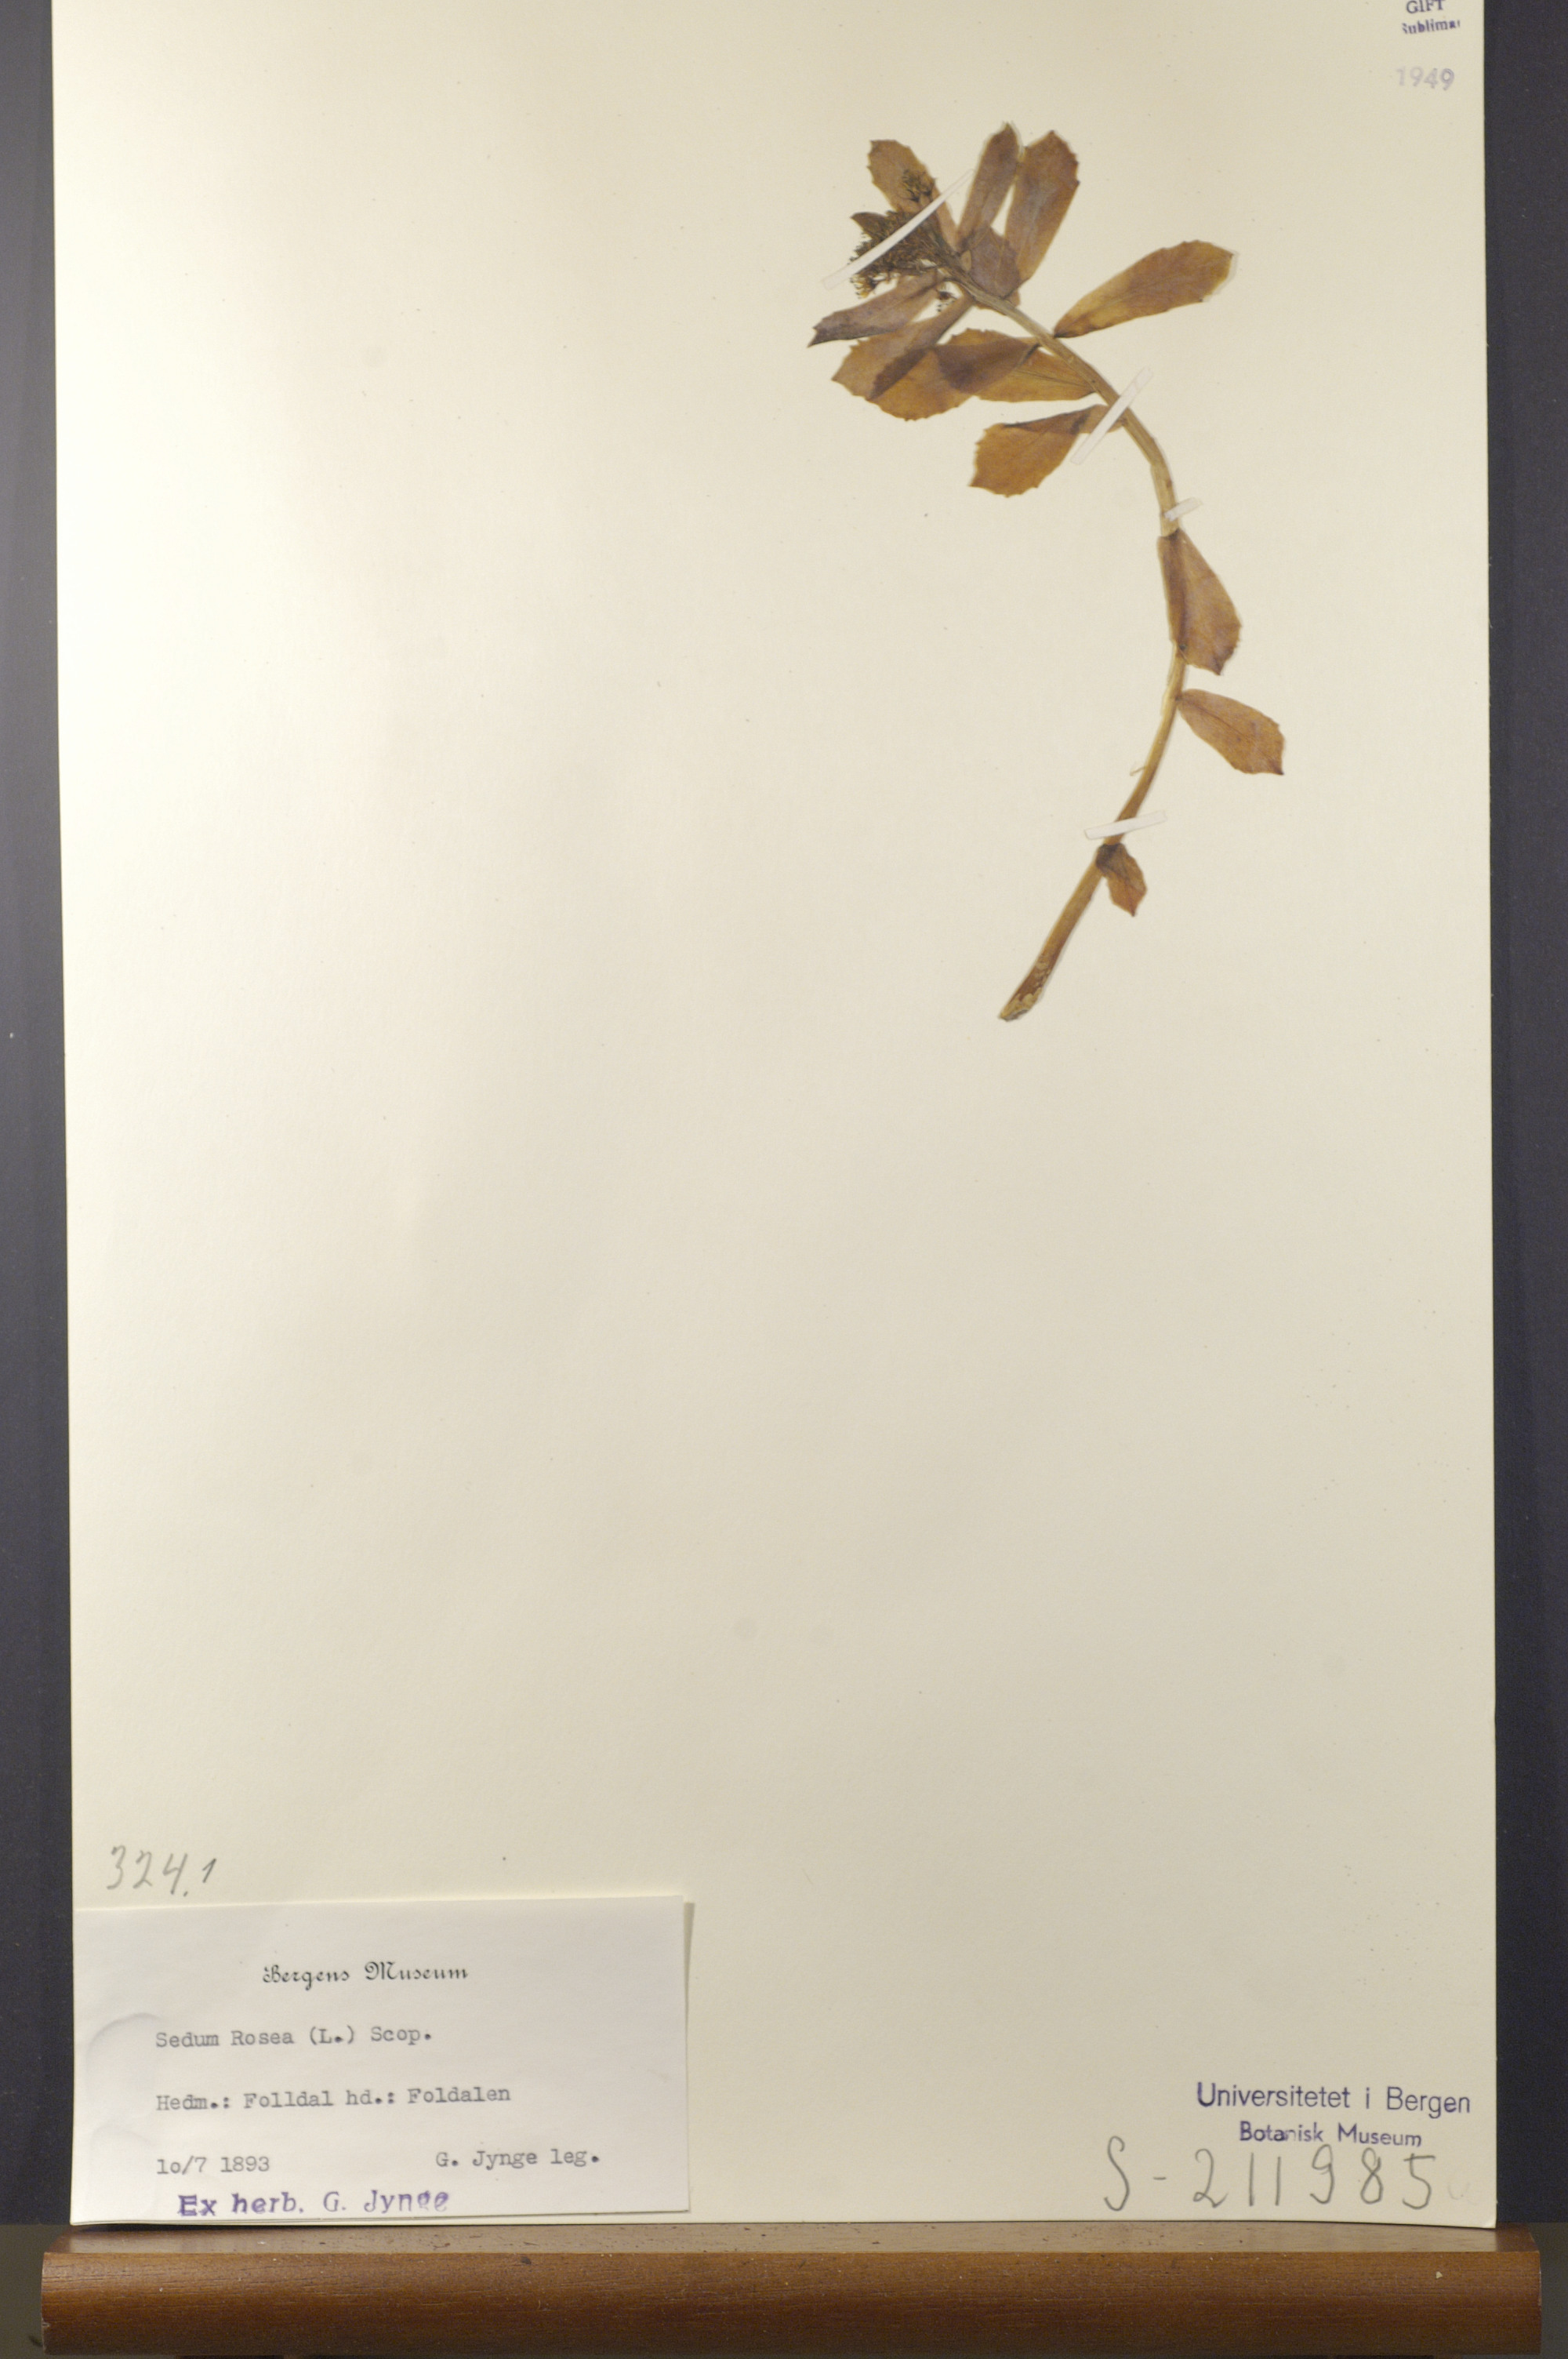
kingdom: Plantae
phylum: Tracheophyta
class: Magnoliopsida
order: Saxifragales
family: Crassulaceae
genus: Rhodiola
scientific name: Rhodiola rosea
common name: Roseroot
